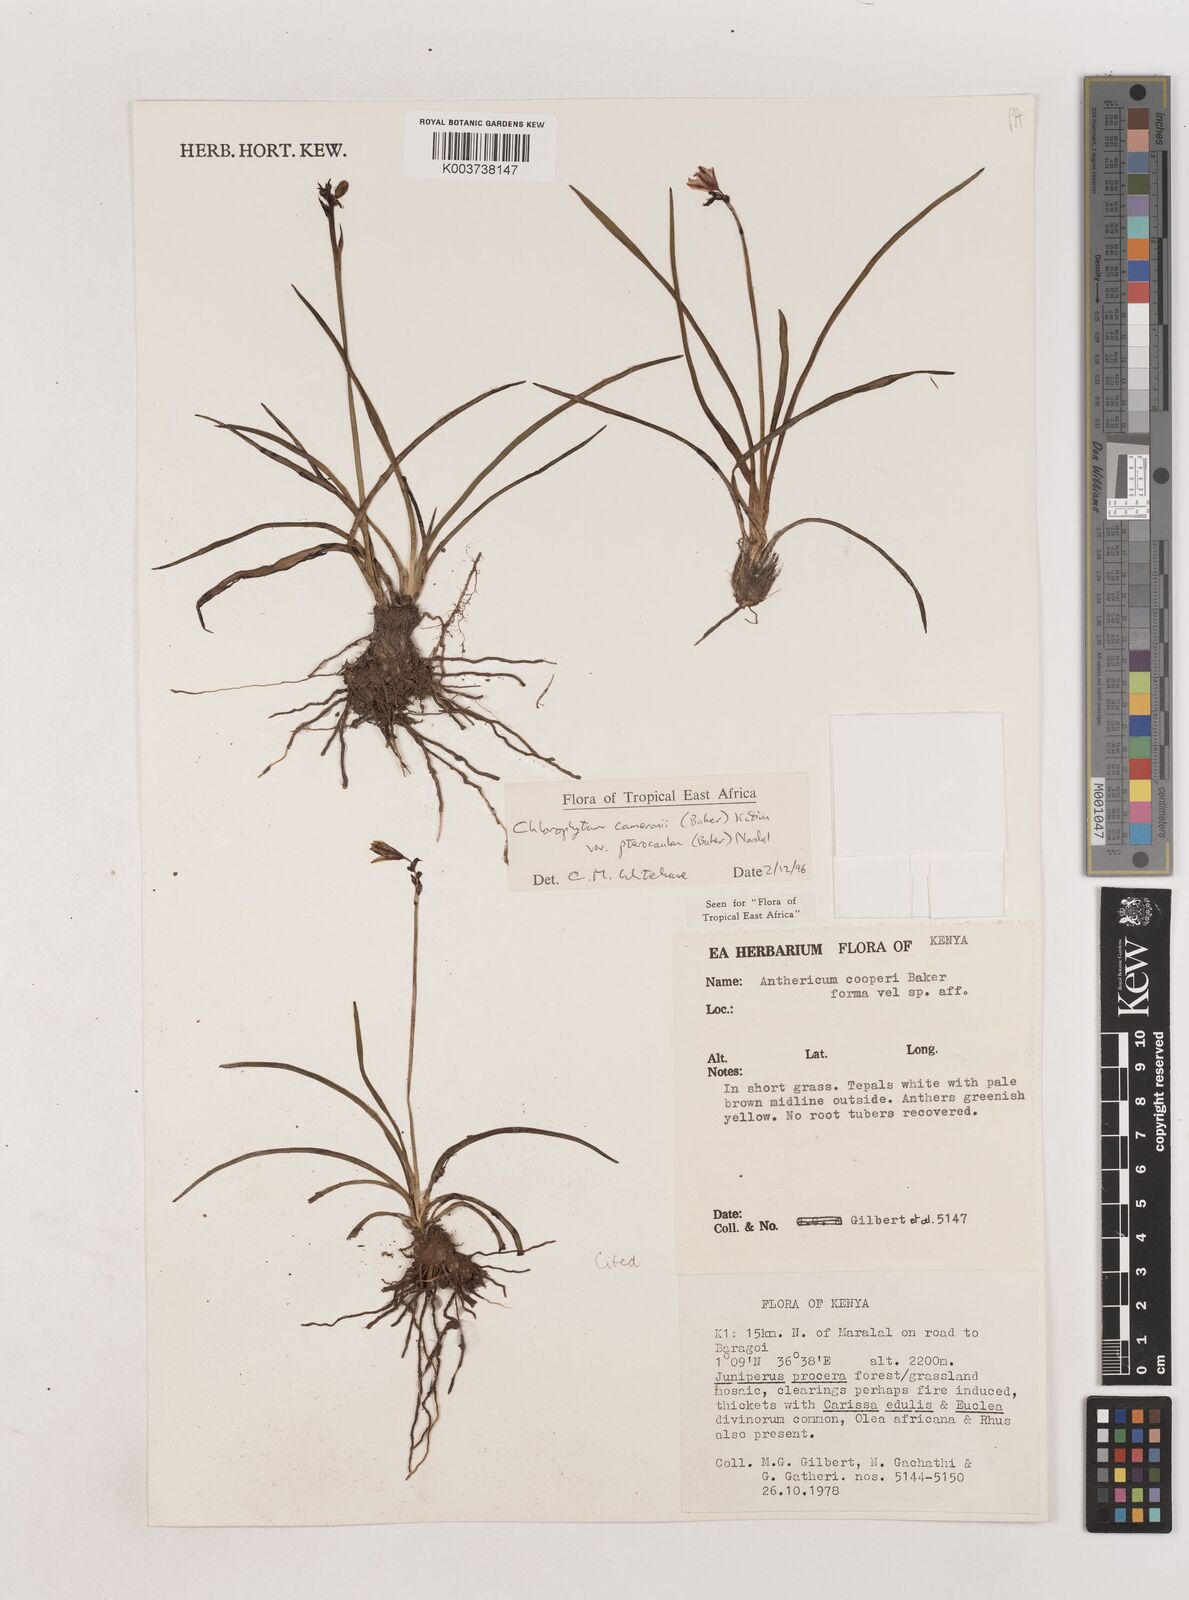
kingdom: Plantae
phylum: Tracheophyta
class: Liliopsida
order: Asparagales
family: Asparagaceae
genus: Chlorophytum
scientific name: Chlorophytum cameronii
